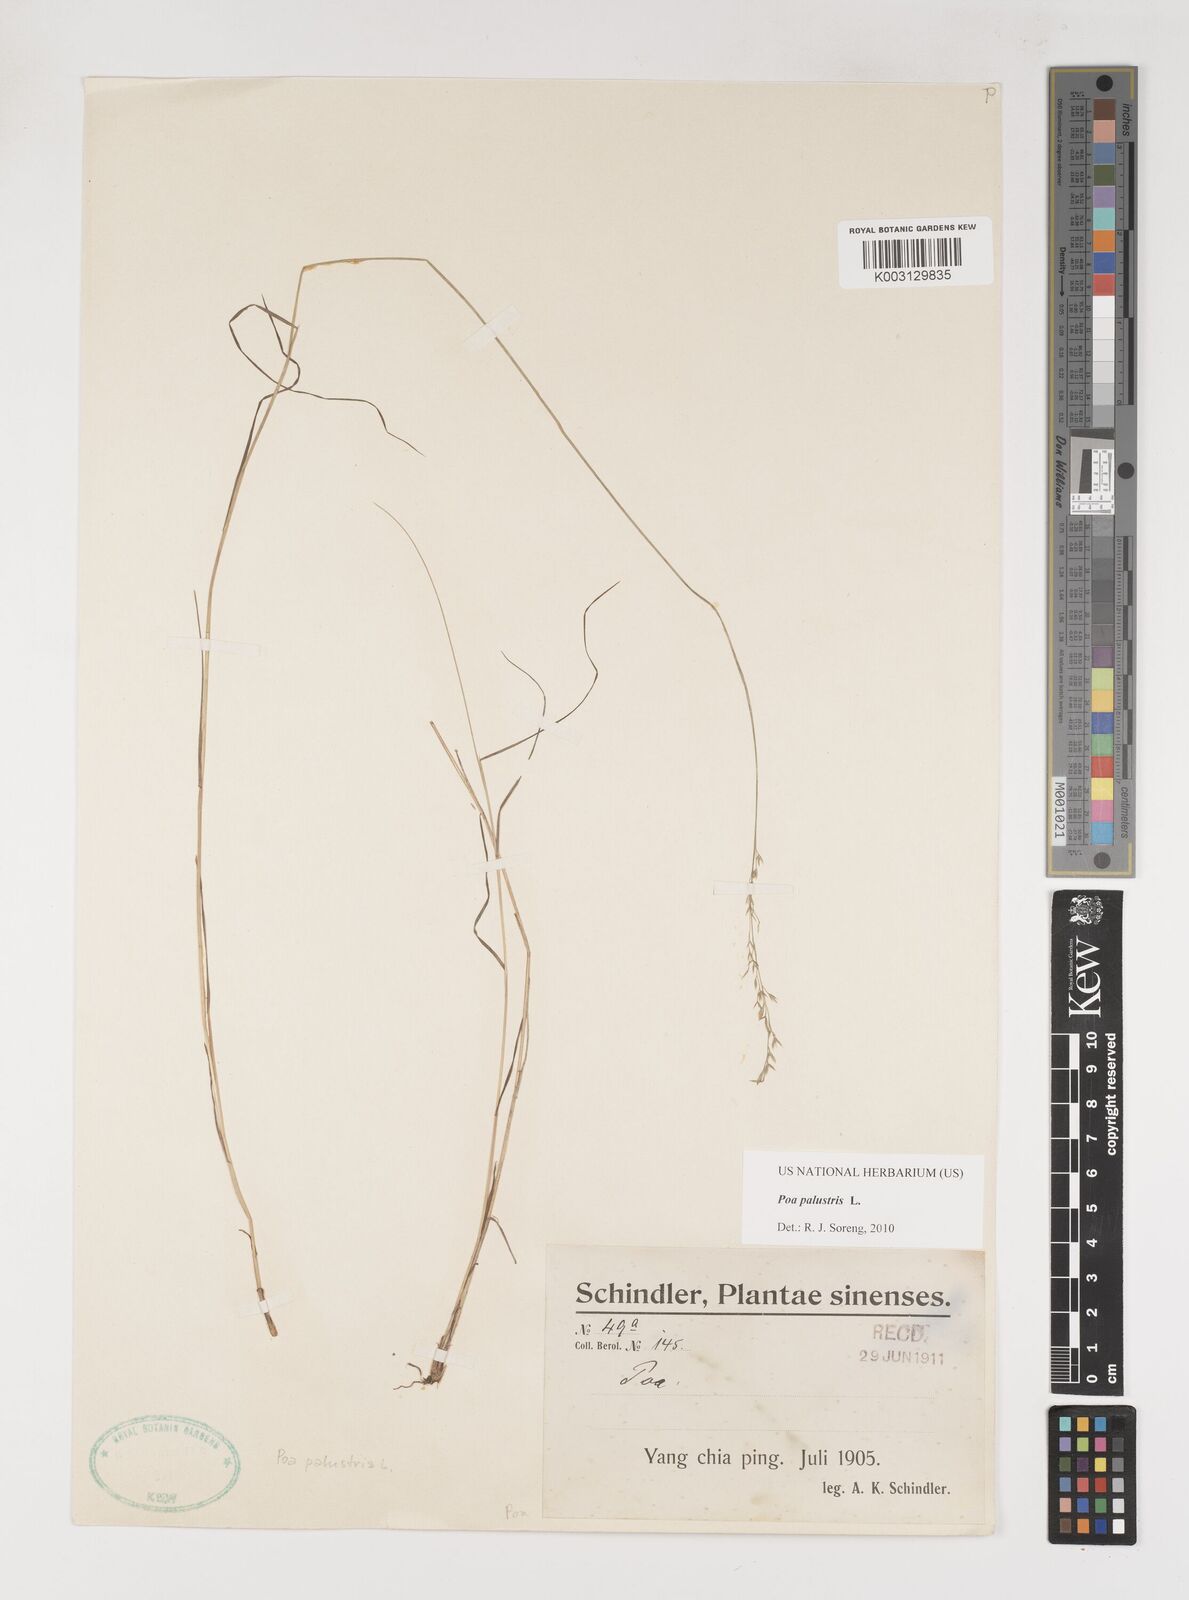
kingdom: Plantae
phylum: Tracheophyta
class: Liliopsida
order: Poales
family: Poaceae
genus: Poa
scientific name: Poa palustris
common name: Swamp meadow-grass
